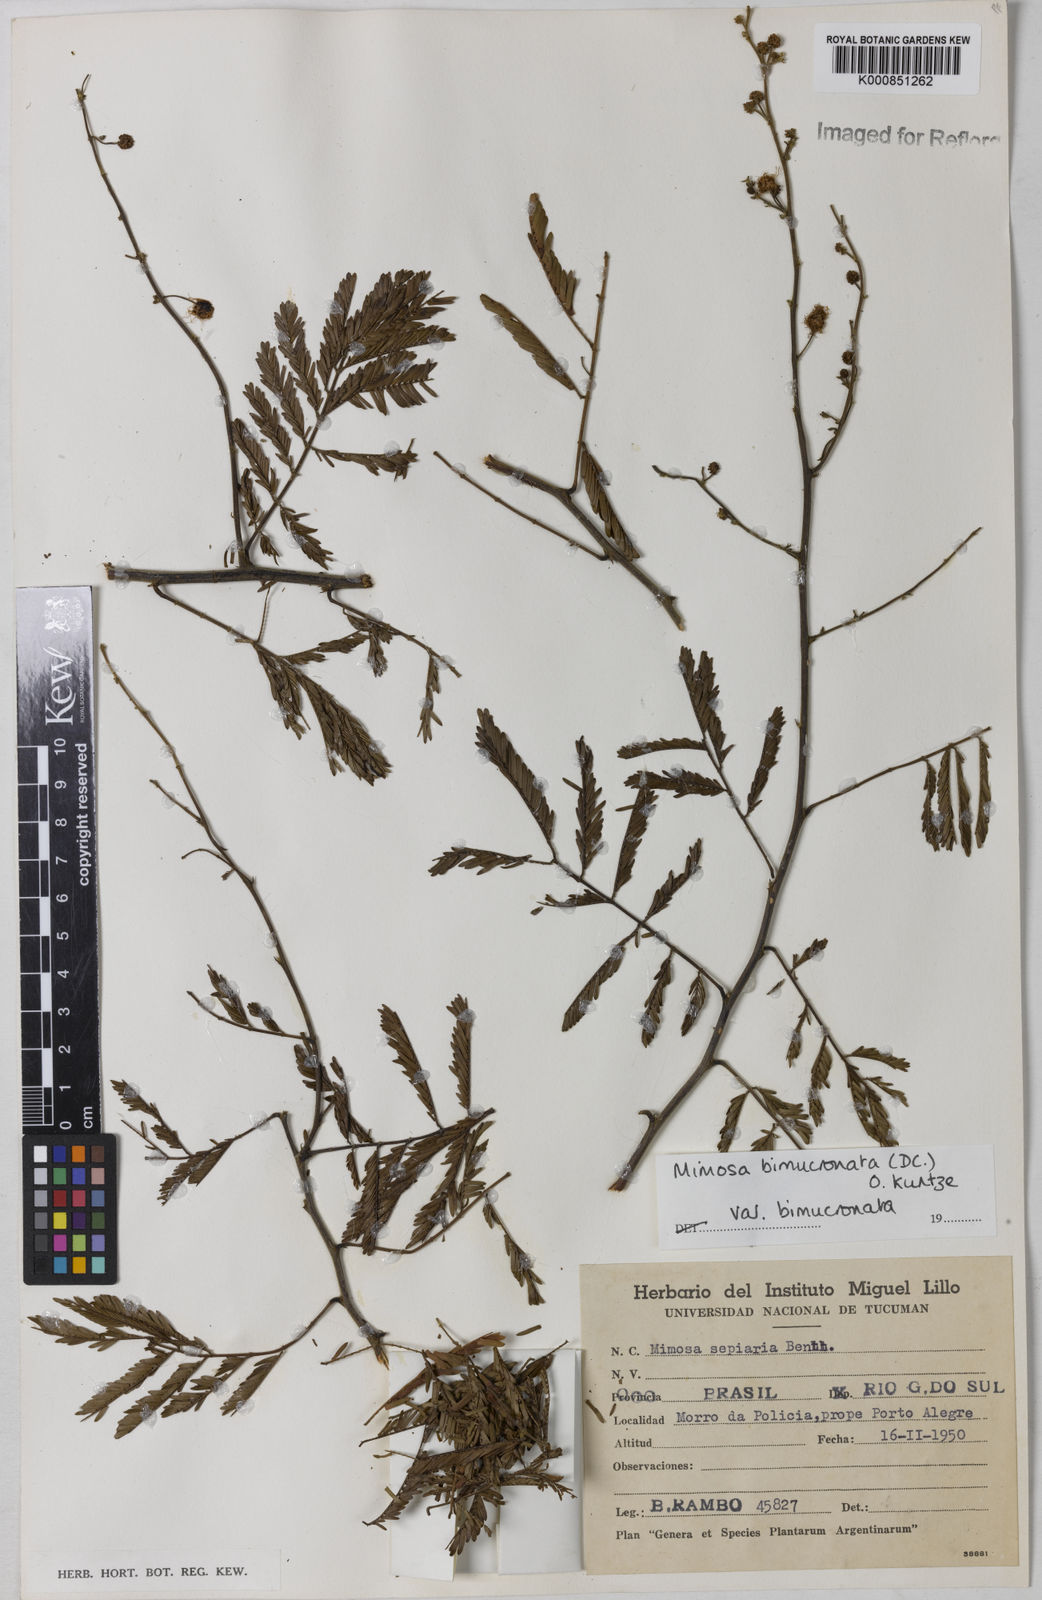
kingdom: Plantae
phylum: Tracheophyta
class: Magnoliopsida
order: Fabales
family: Fabaceae
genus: Mimosa
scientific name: Mimosa bimucronata
